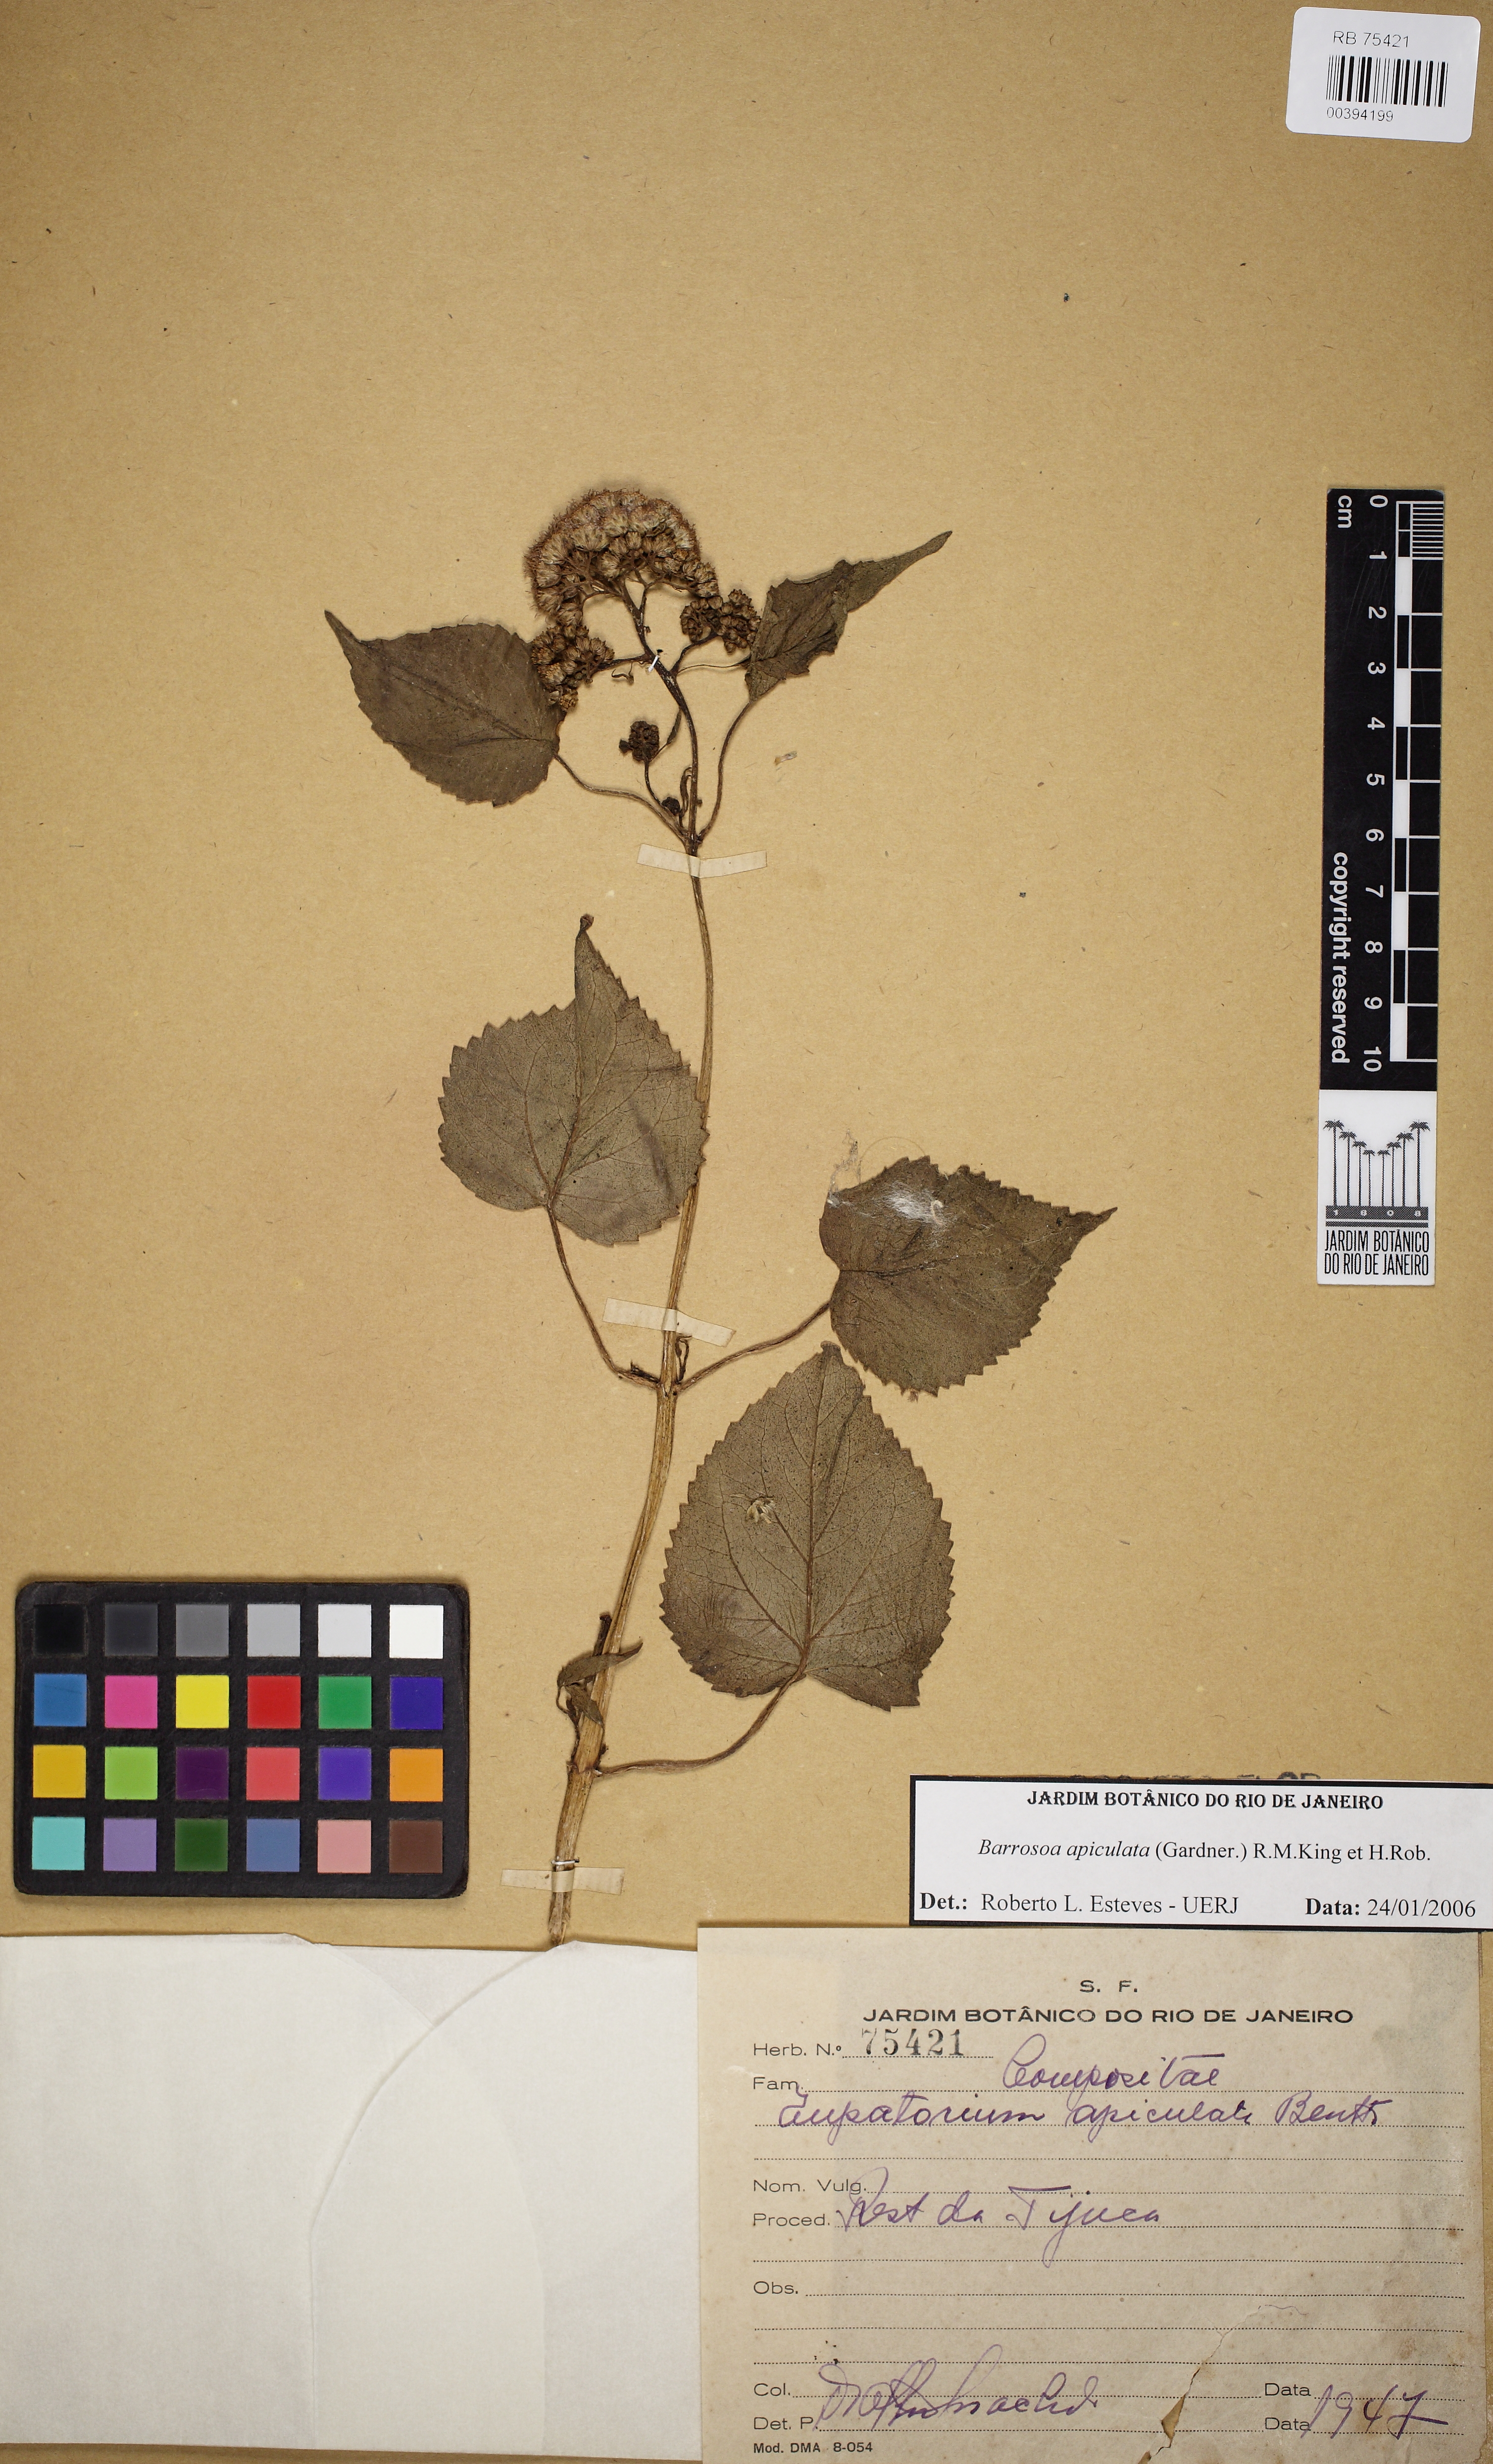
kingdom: Plantae
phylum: Tracheophyta
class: Magnoliopsida
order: Asterales
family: Asteraceae
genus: Barrosoa
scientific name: Barrosoa apiculata
